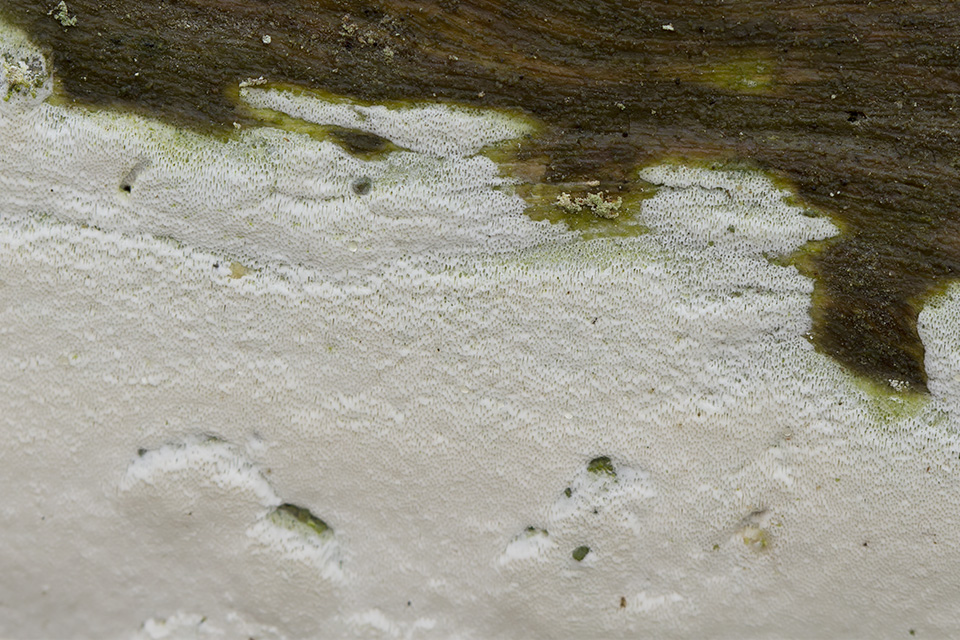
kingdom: Fungi
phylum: Basidiomycota
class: Agaricomycetes
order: Hymenochaetales
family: Rickenellaceae
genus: Sidera
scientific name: Sidera vulgaris
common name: fin flødeporesvamp
